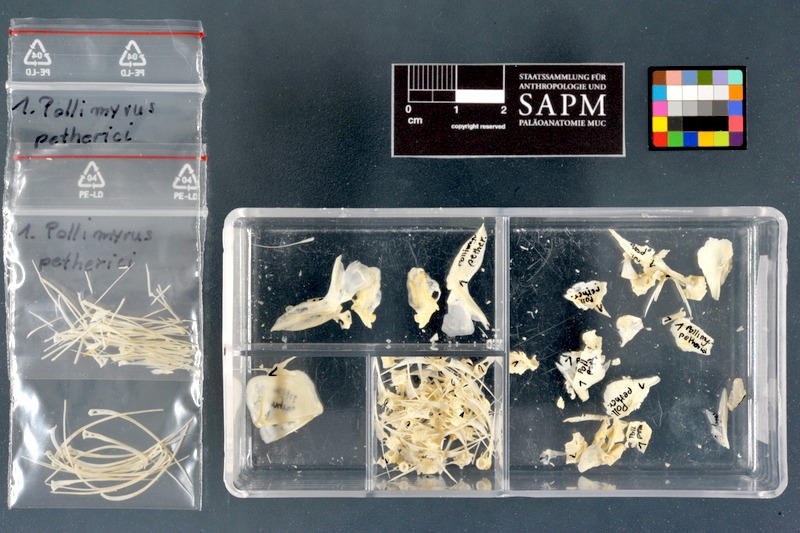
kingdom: Animalia
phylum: Chordata
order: Osteoglossiformes
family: Mormyridae
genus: Pollimyrus
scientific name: Pollimyrus petherici
